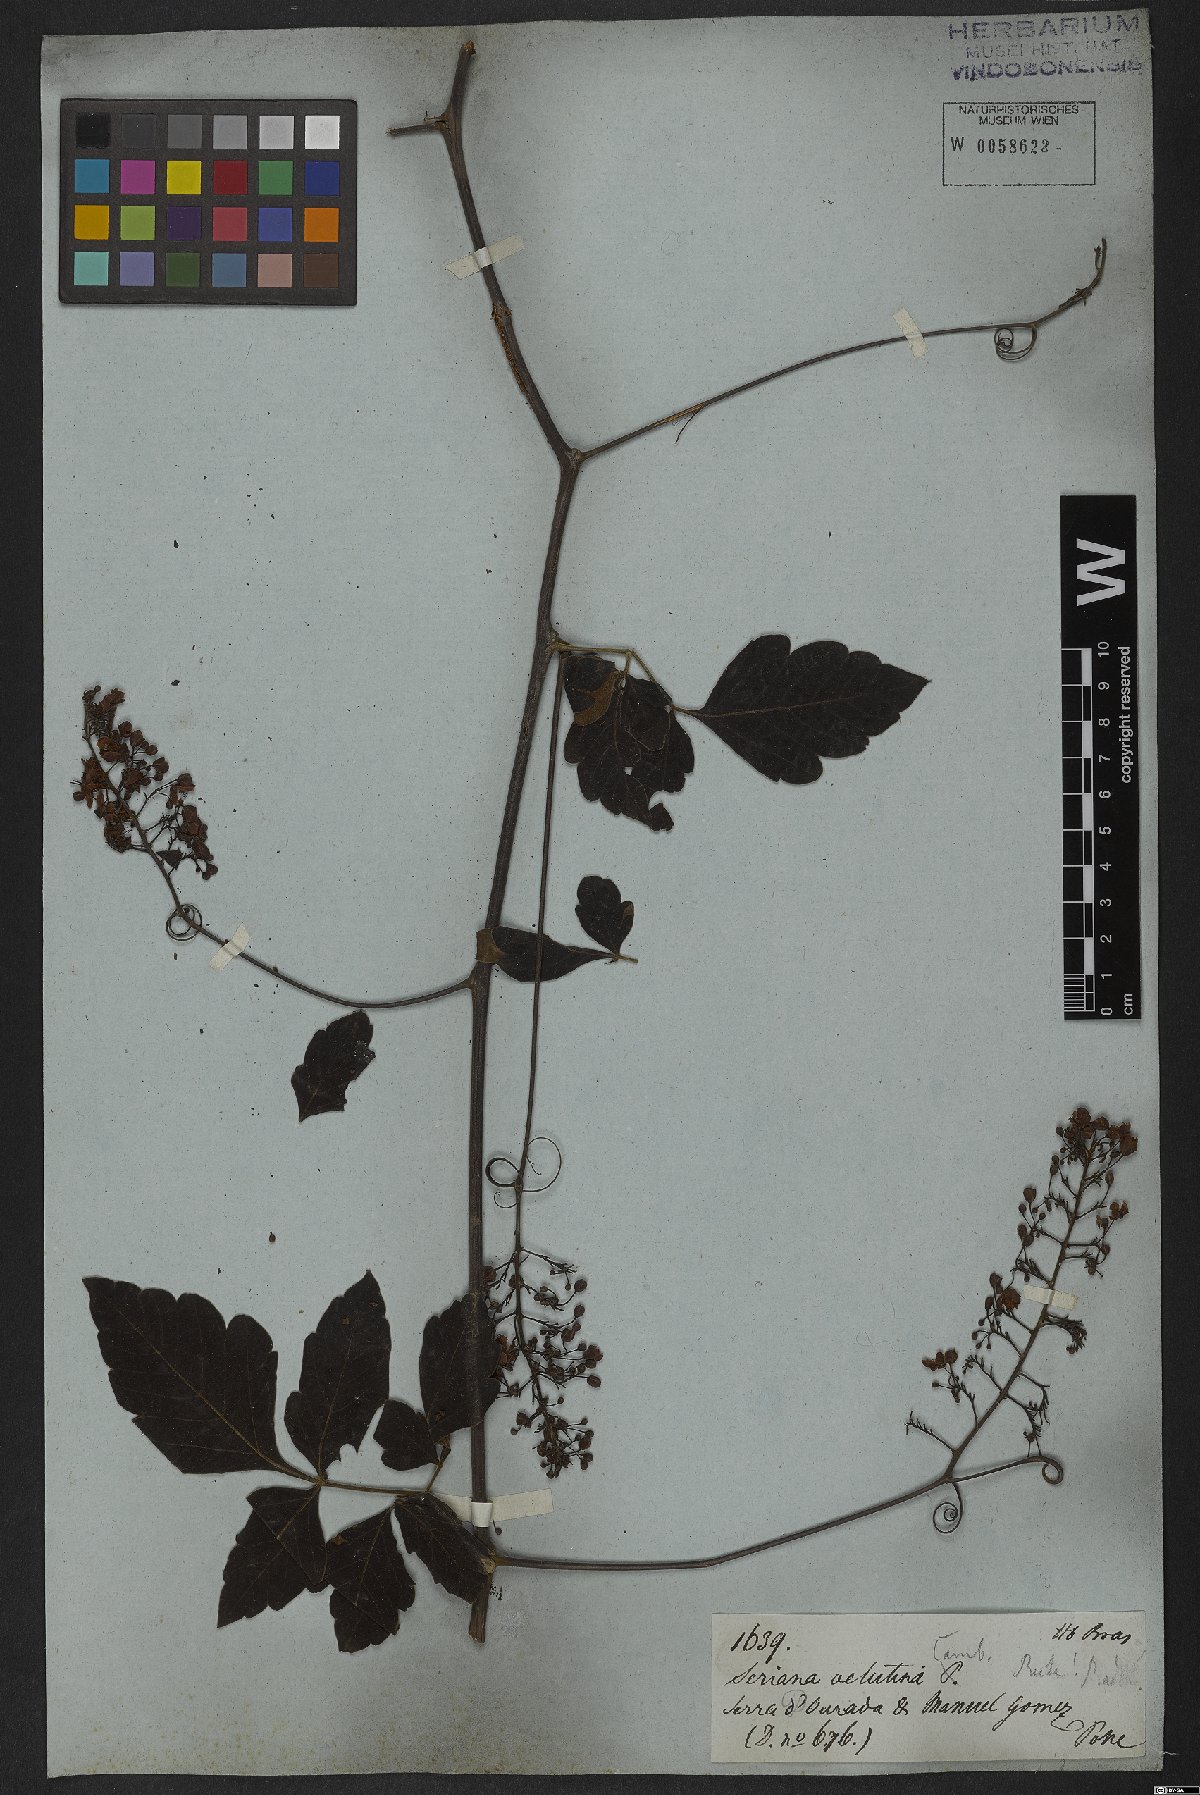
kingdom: Plantae
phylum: Tracheophyta
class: Magnoliopsida
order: Sapindales
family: Sapindaceae
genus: Serjania
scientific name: Serjania velutina
